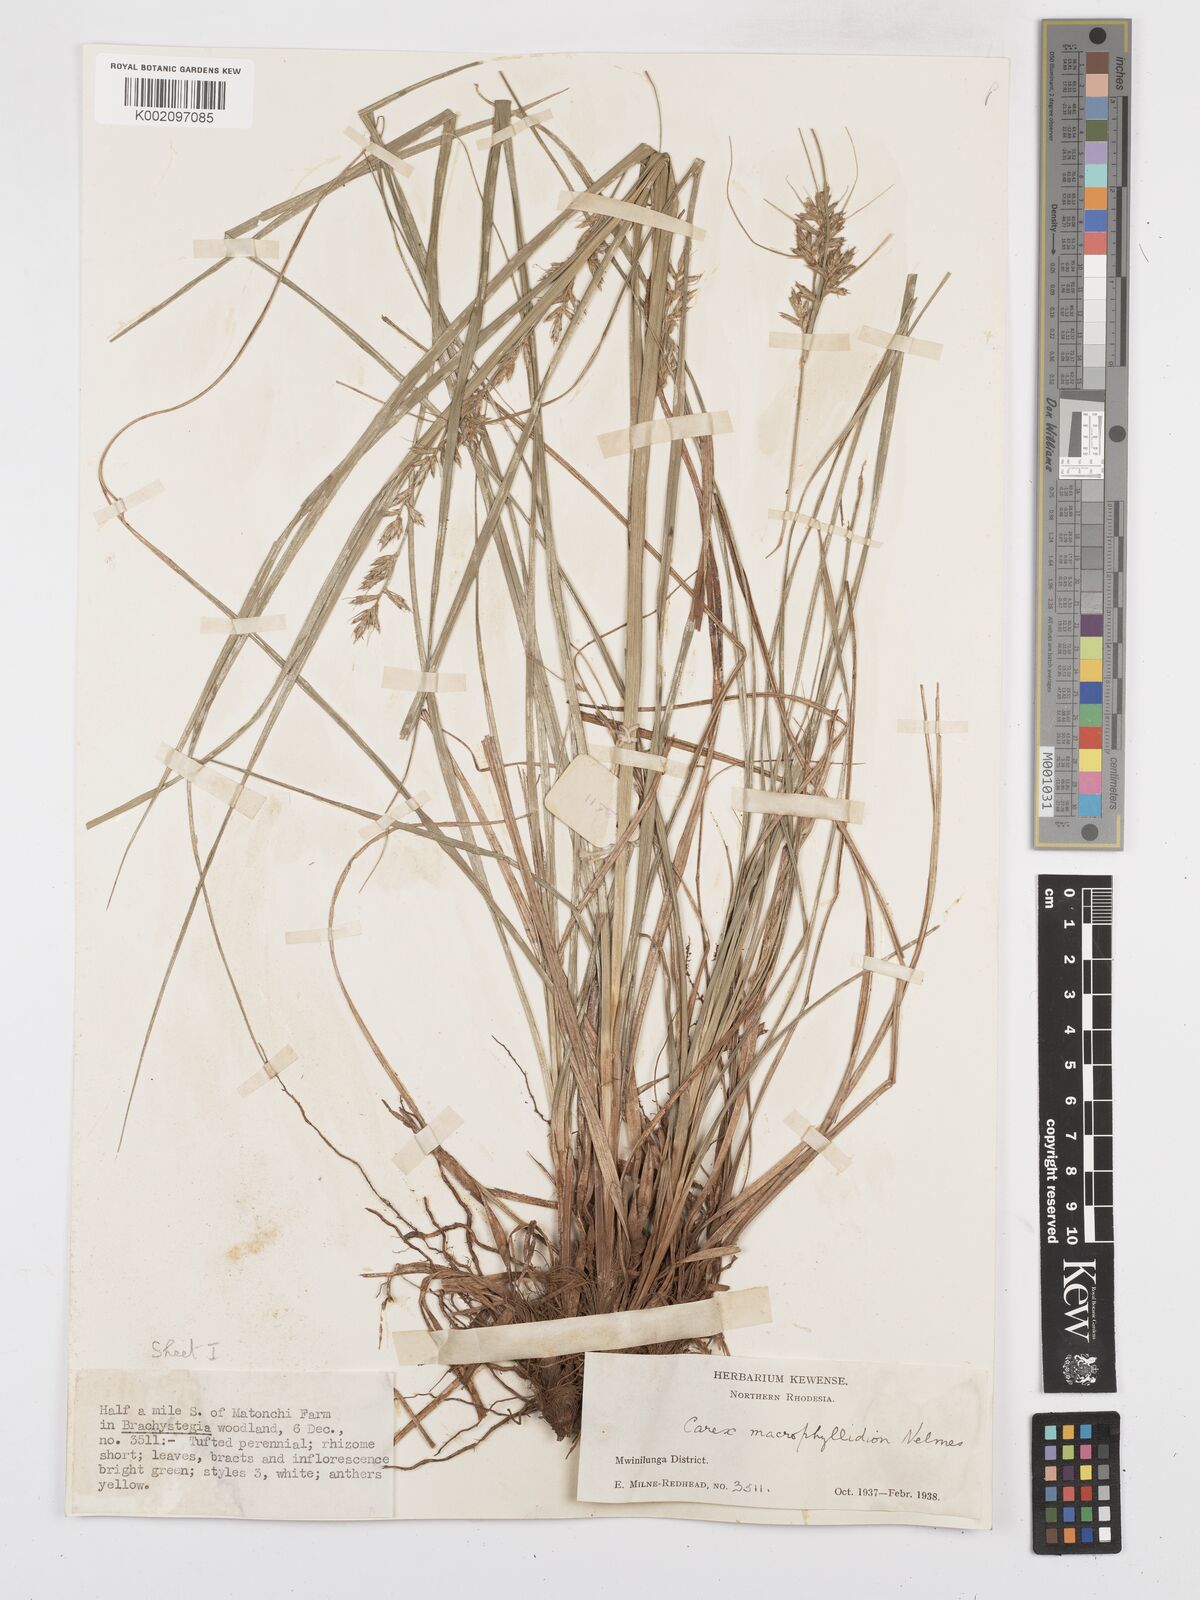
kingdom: Plantae
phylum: Tracheophyta
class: Liliopsida
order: Poales
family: Cyperaceae
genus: Carex
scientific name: Carex macrophyllidion
